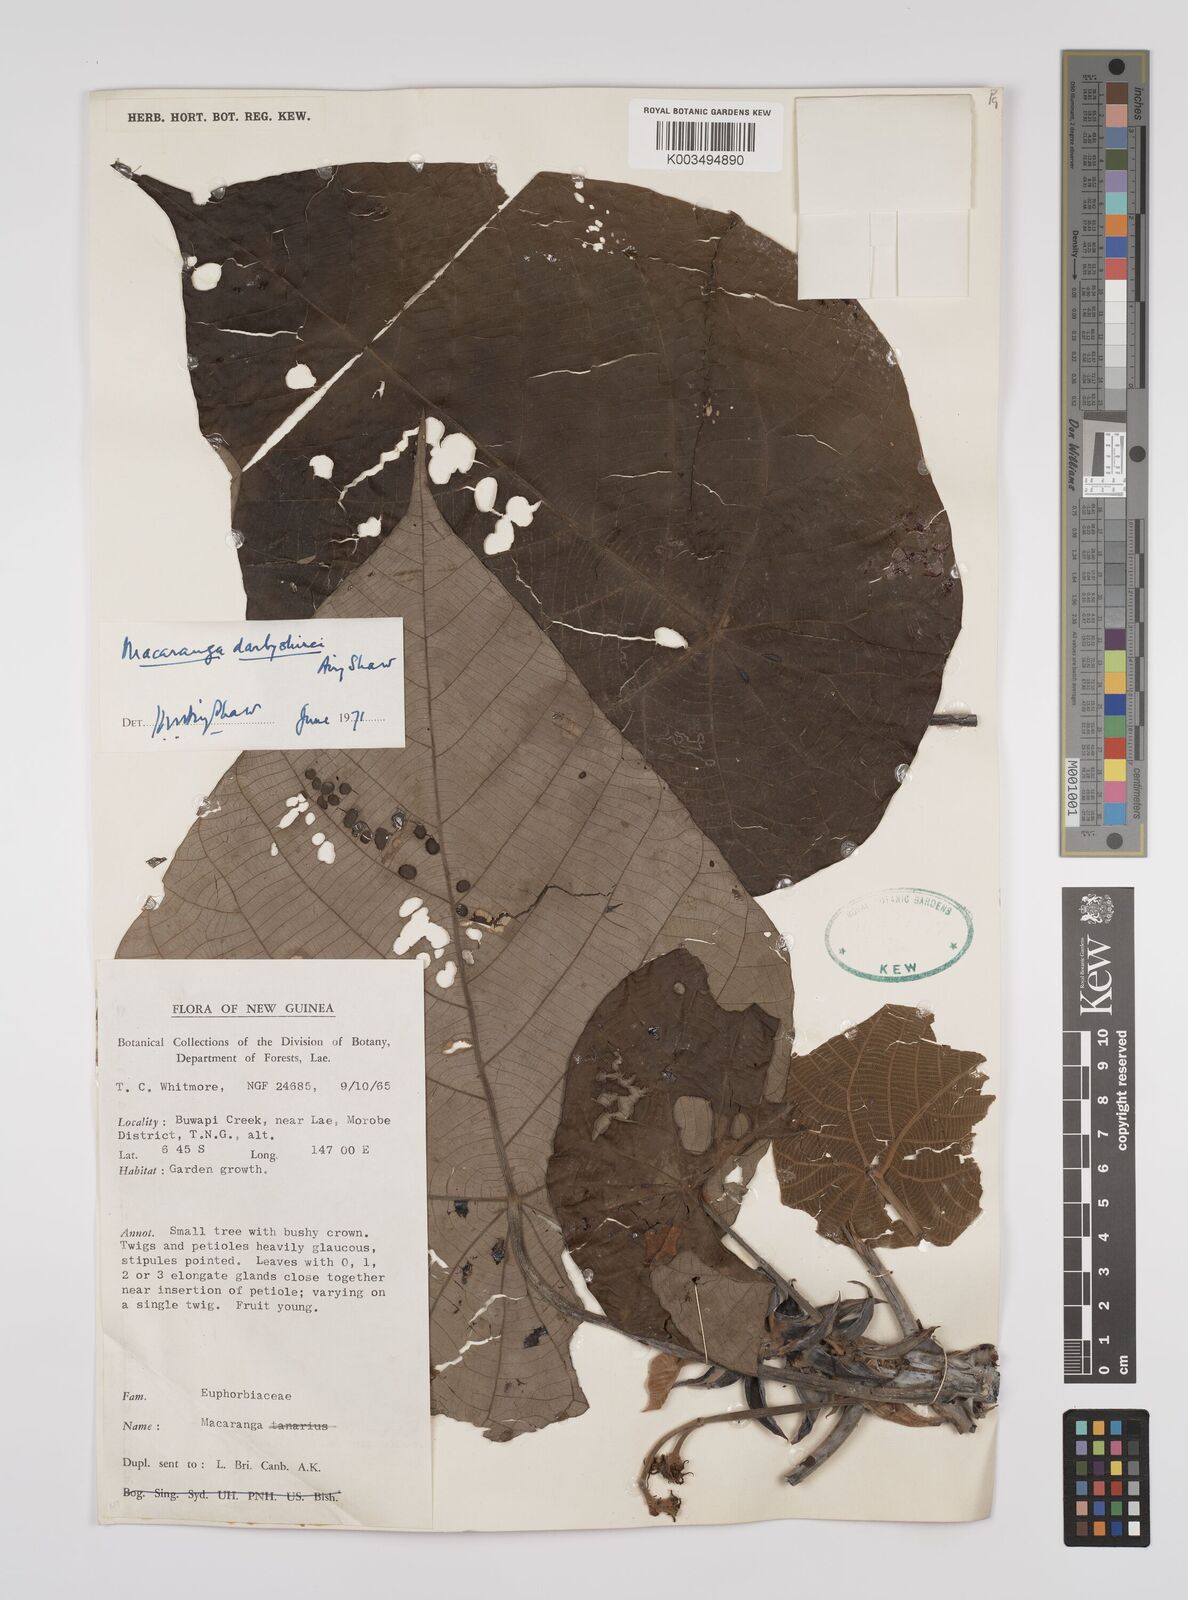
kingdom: Plantae
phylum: Tracheophyta
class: Magnoliopsida
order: Malpighiales
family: Euphorbiaceae
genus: Macaranga
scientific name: Macaranga darbyshirei
